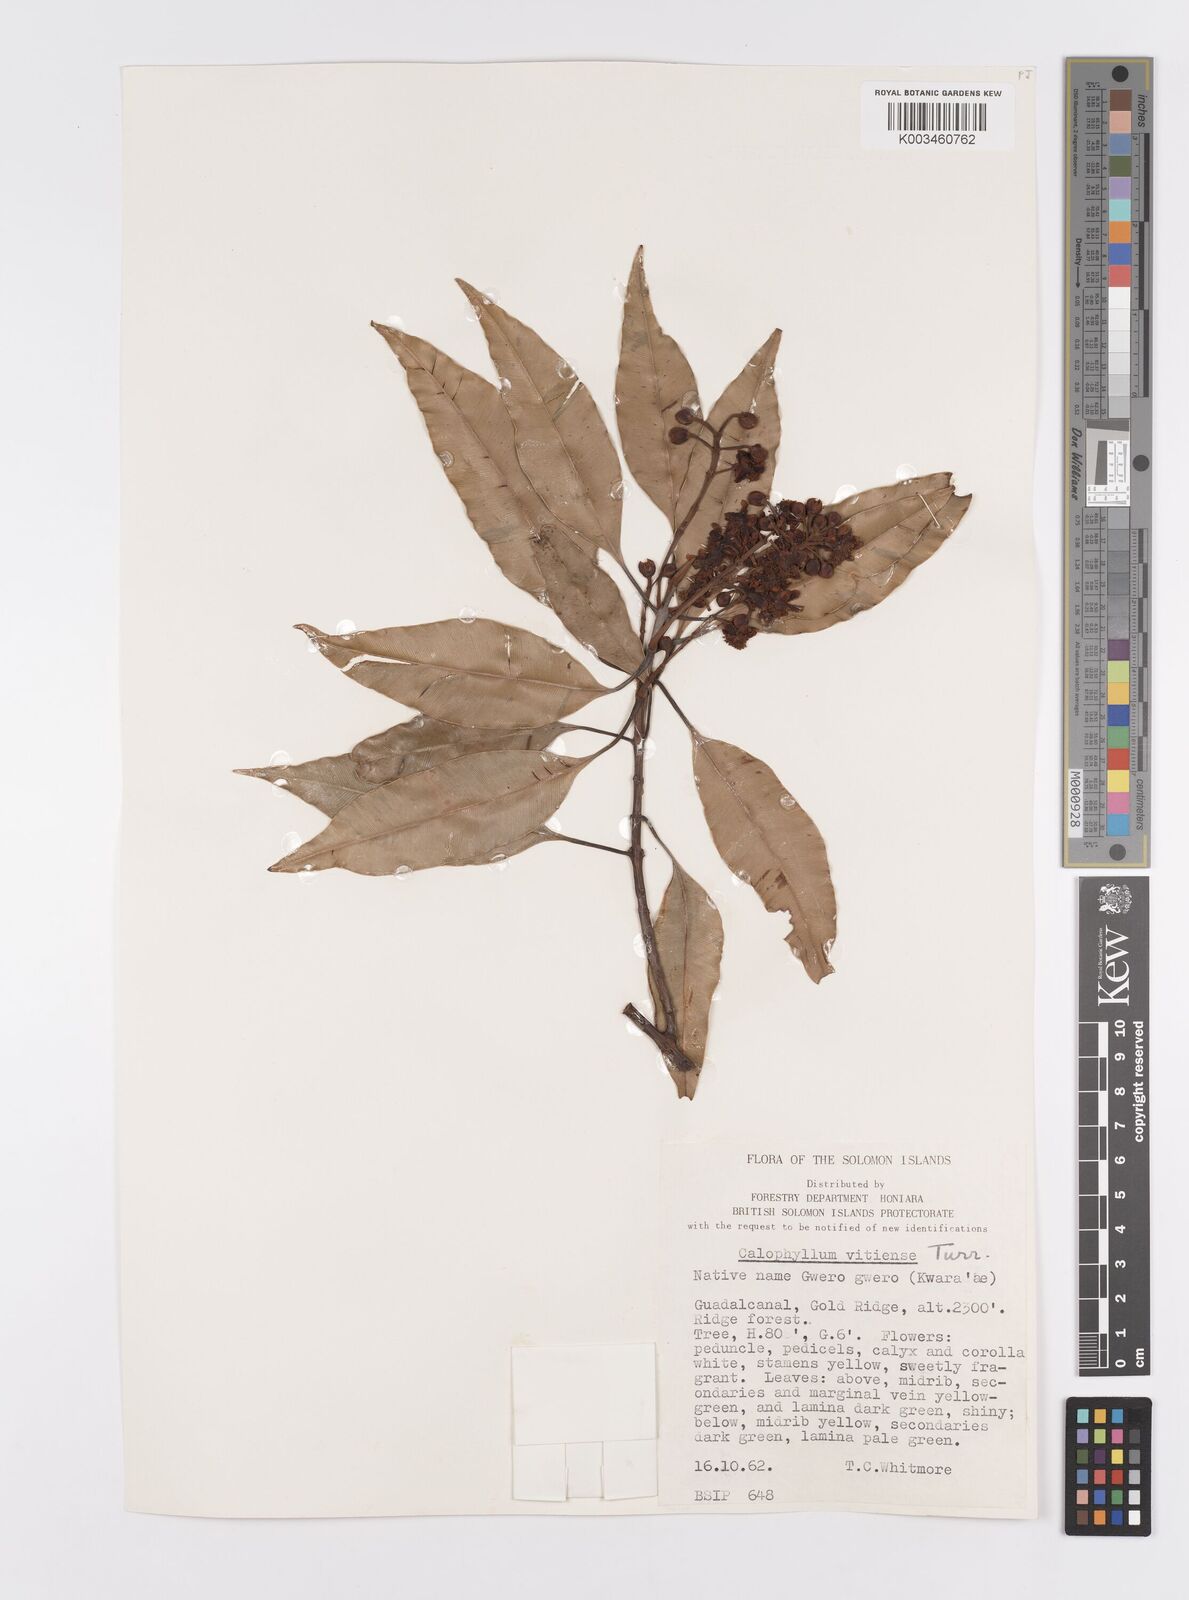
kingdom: Plantae
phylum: Tracheophyta
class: Magnoliopsida
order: Malpighiales
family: Calophyllaceae
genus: Calophyllum
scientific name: Calophyllum vitiense
